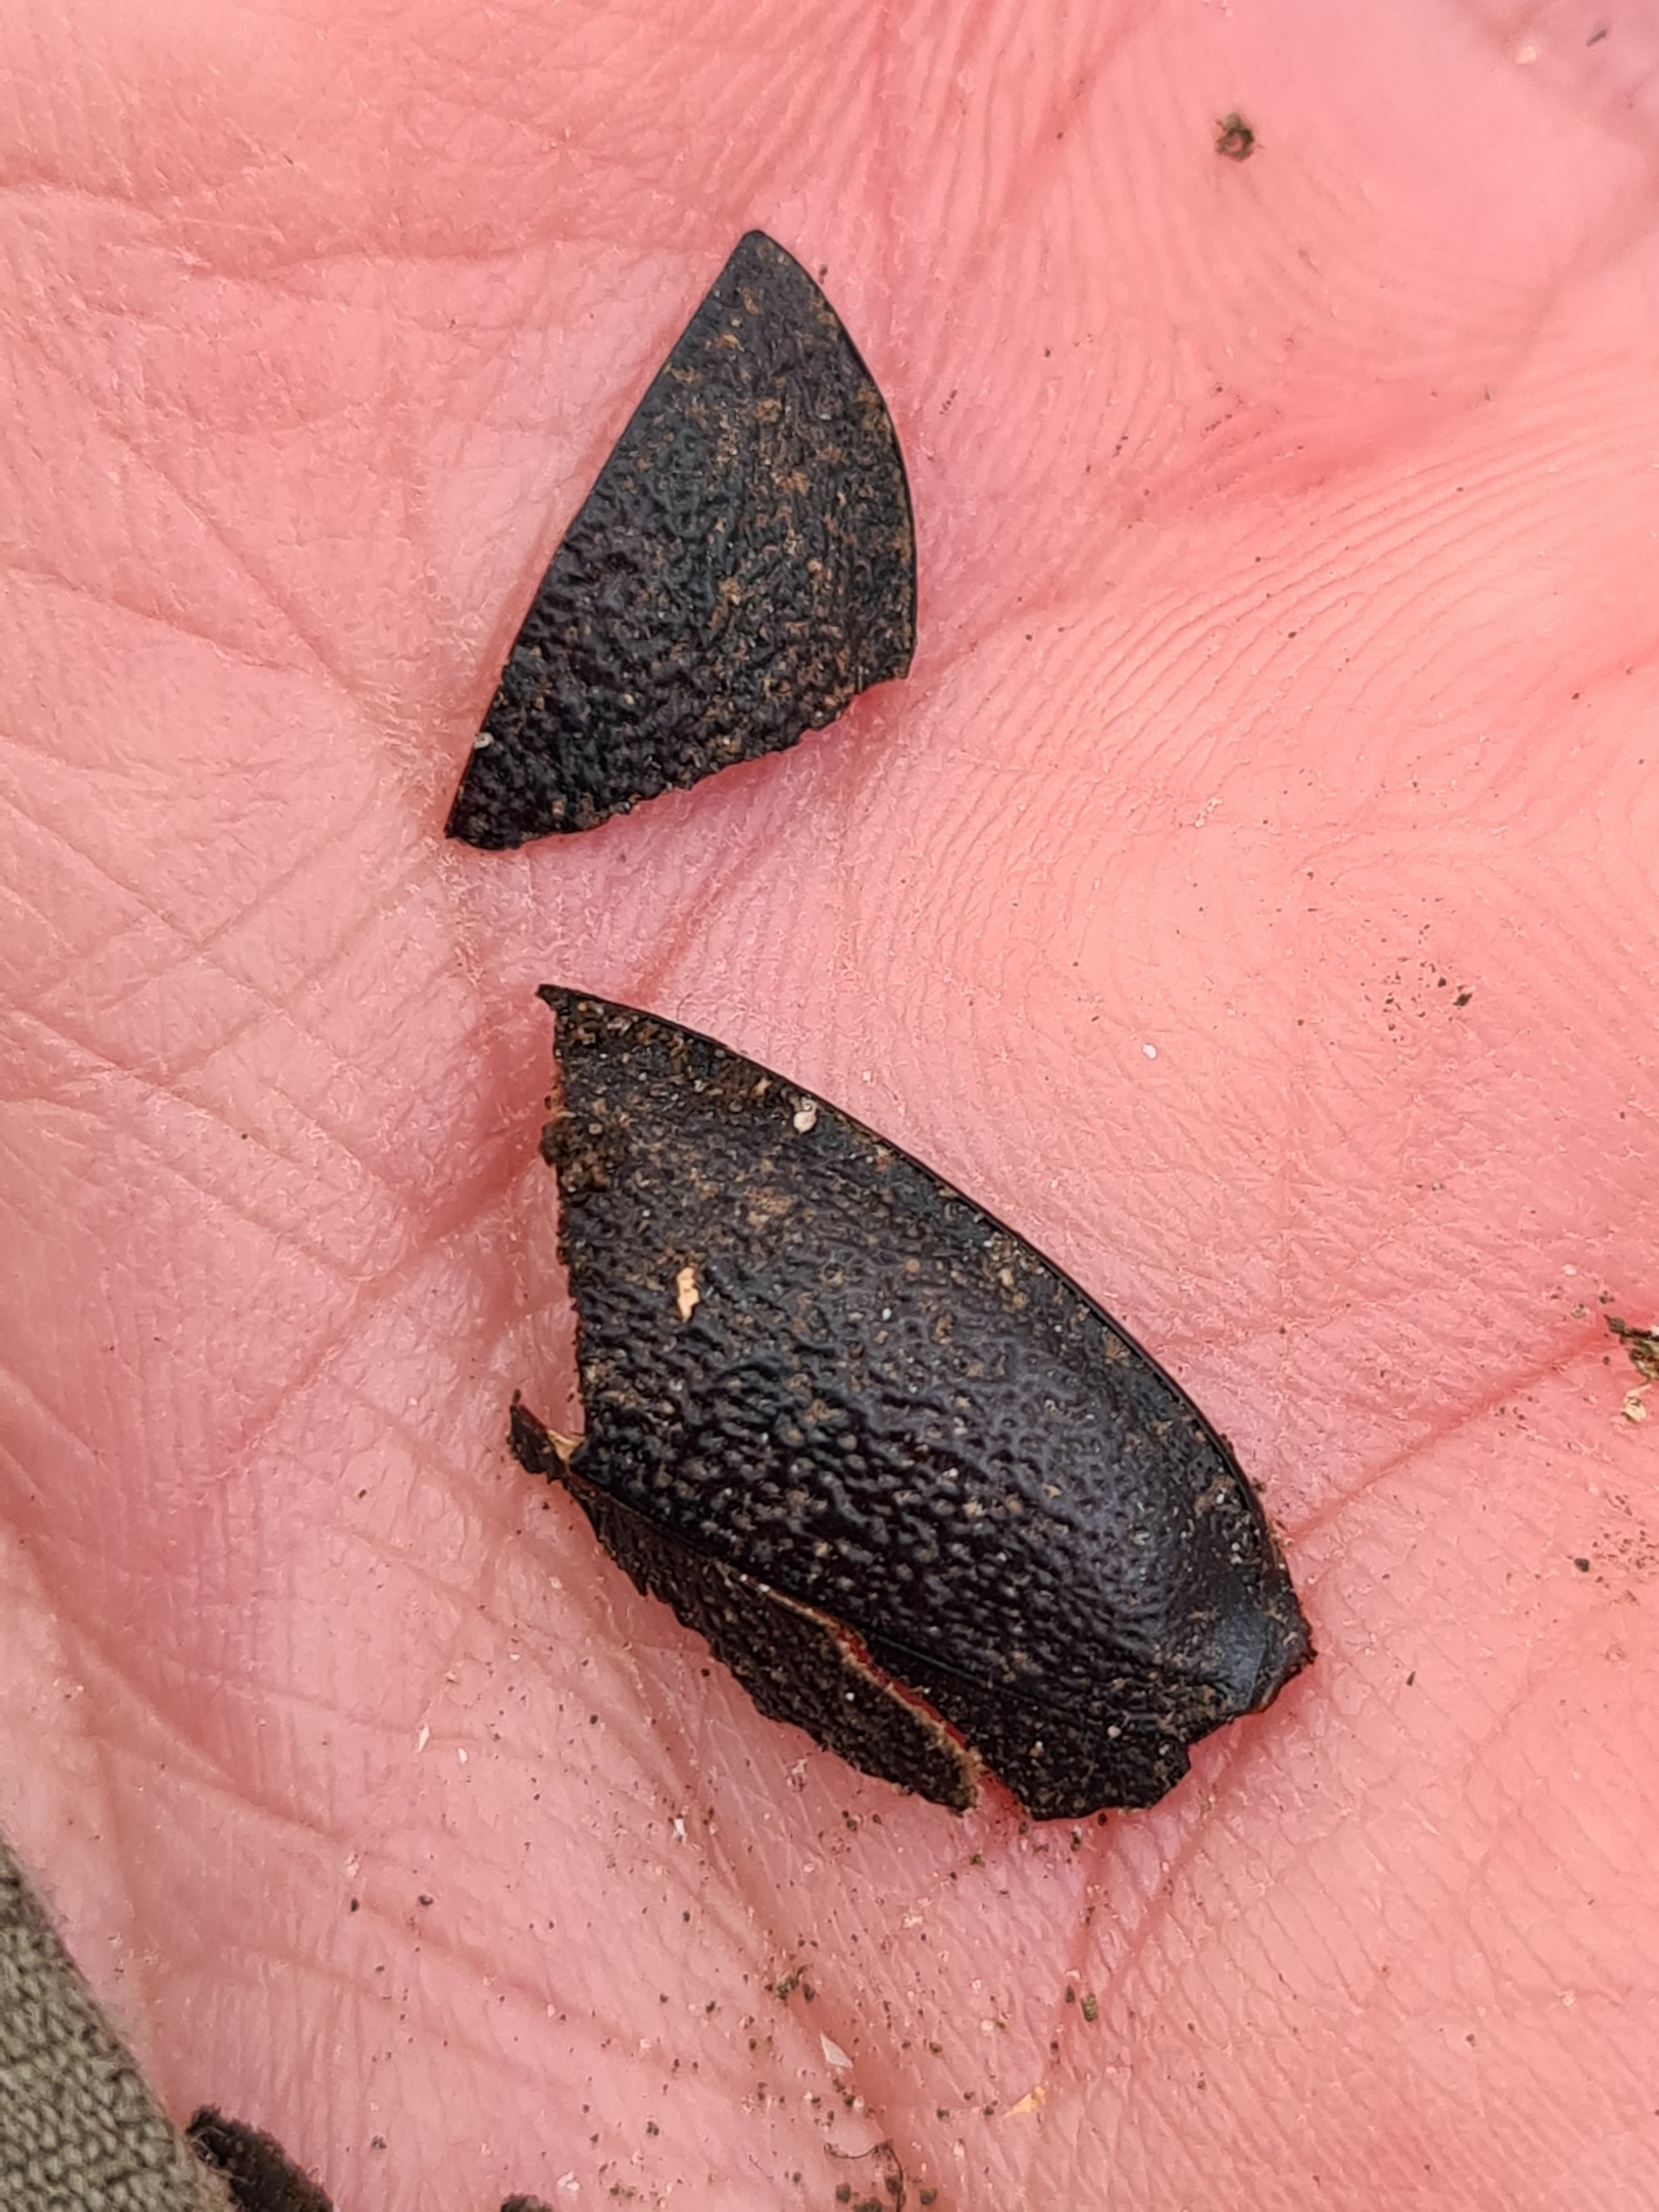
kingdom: Animalia
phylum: Arthropoda
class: Insecta
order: Coleoptera
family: Carabidae
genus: Carabus
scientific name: Carabus coriaceus
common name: Læderløber
